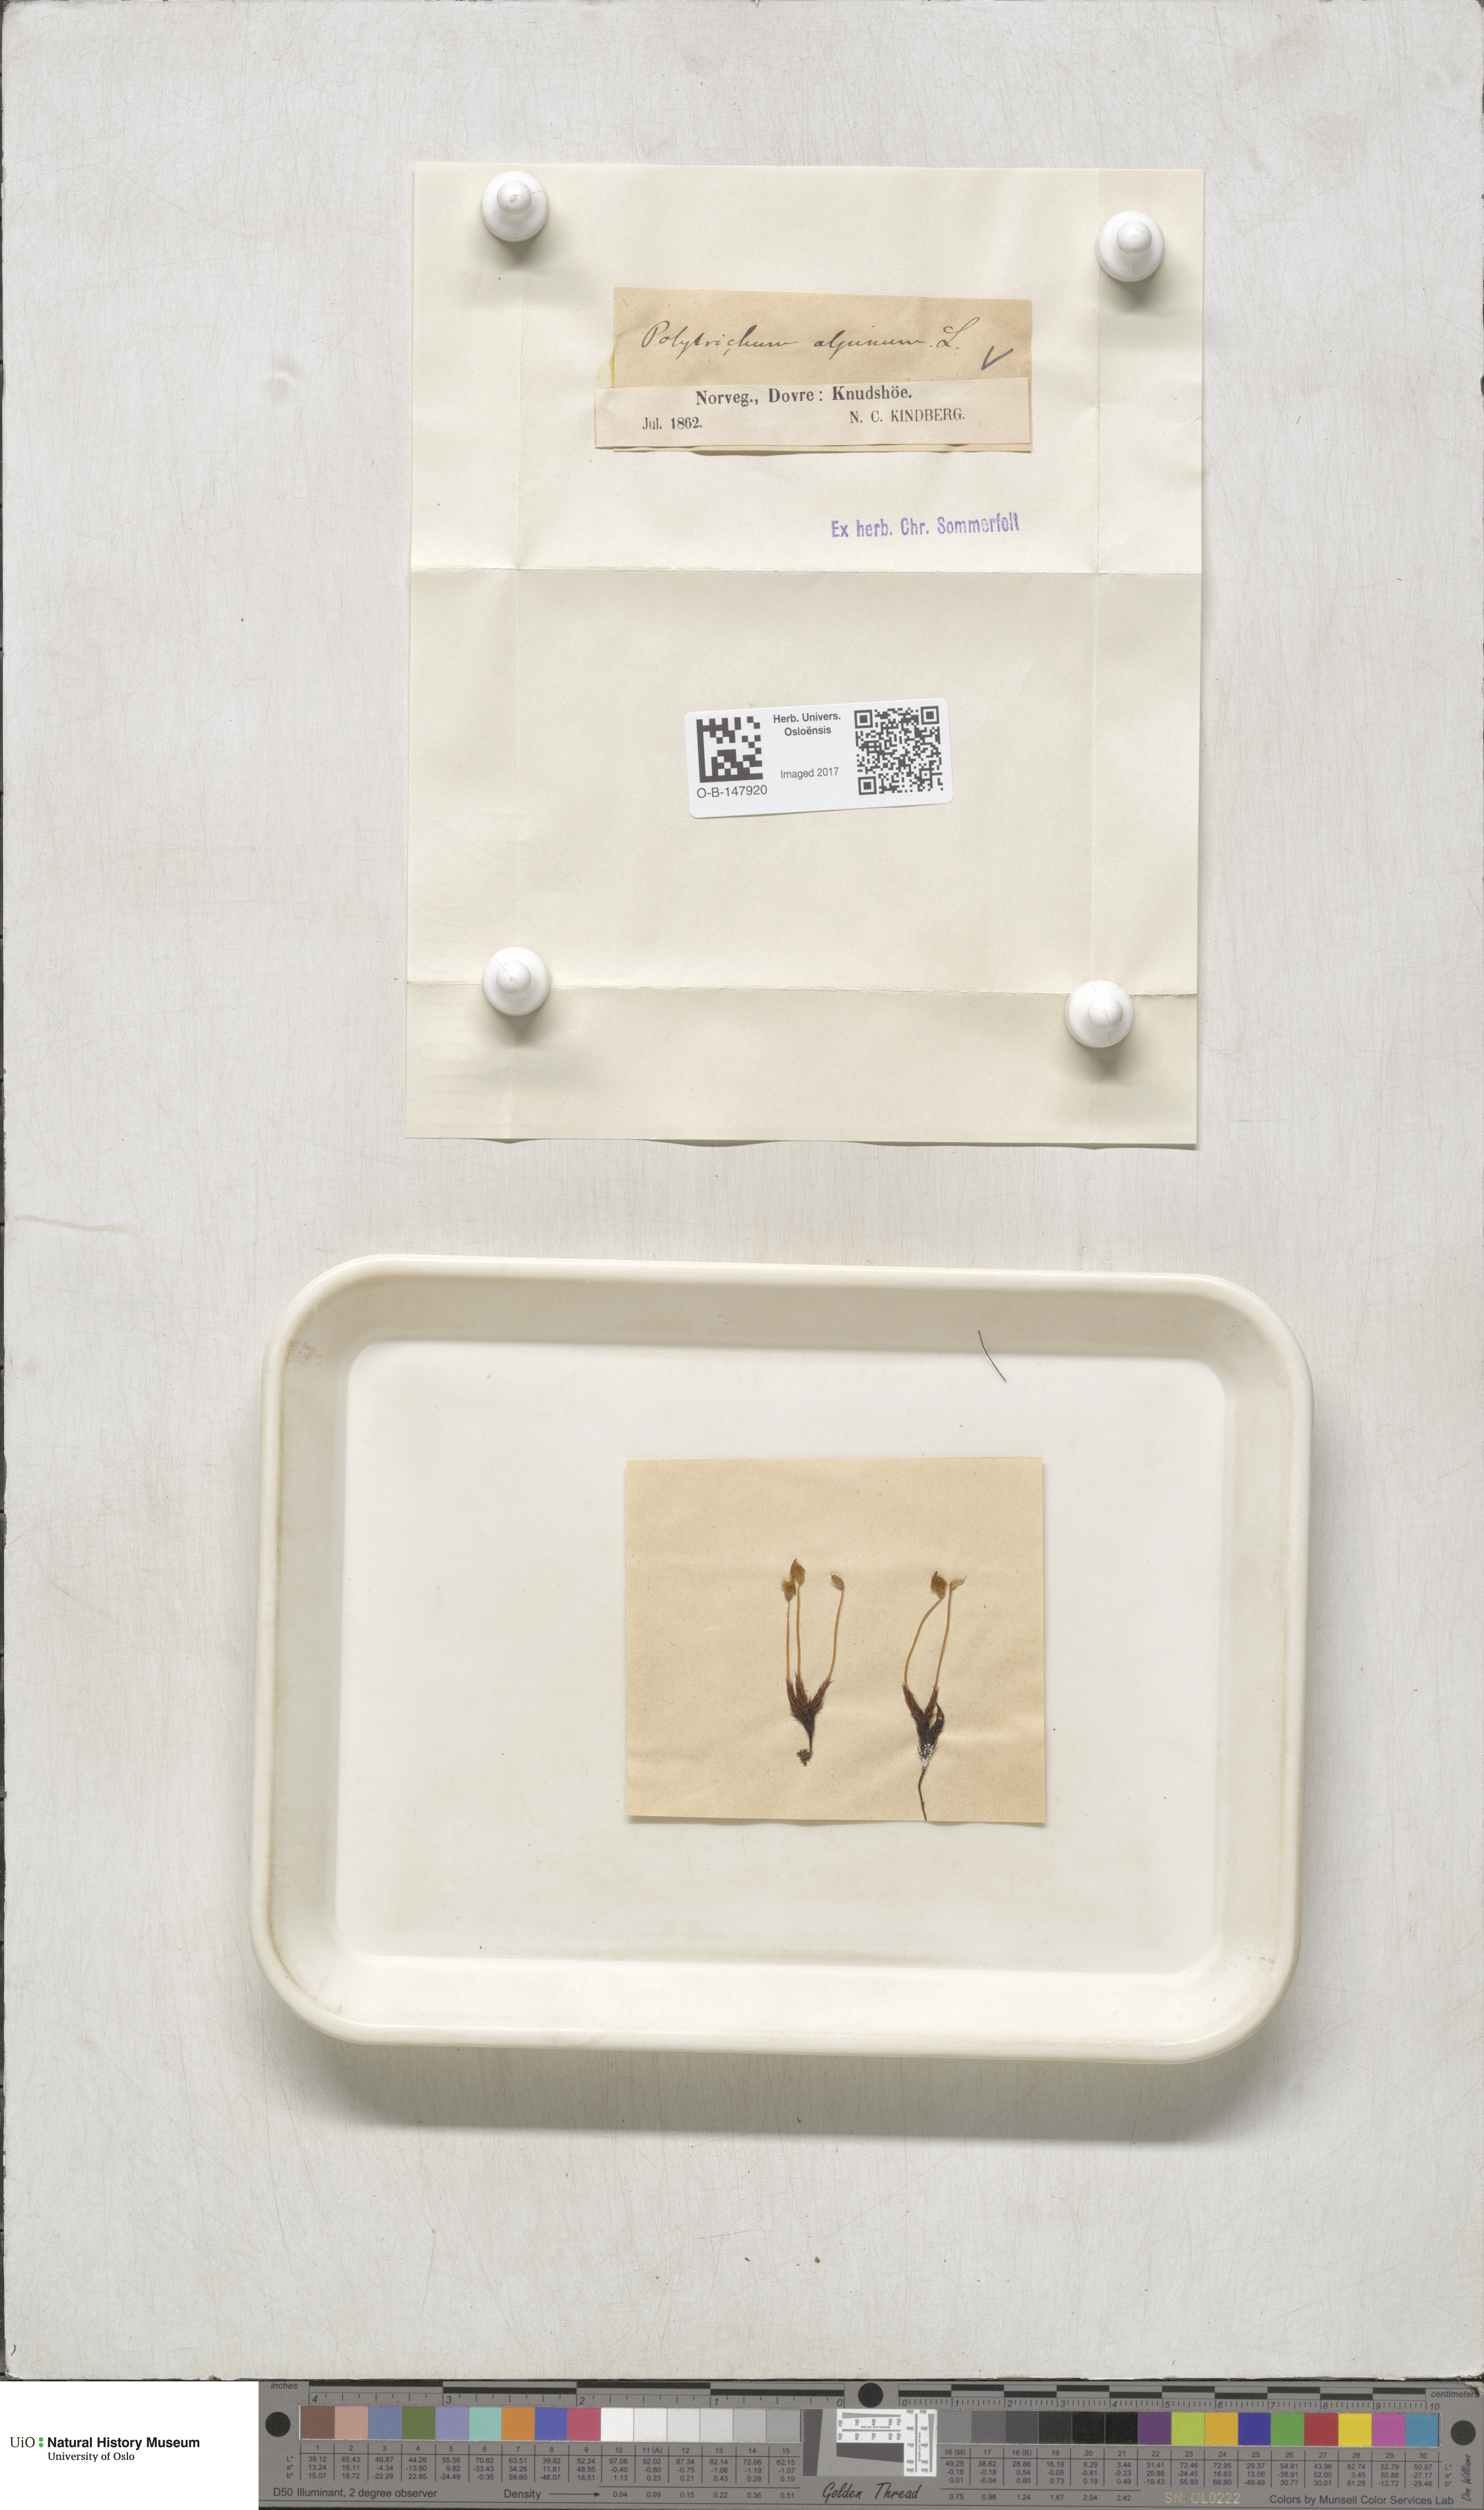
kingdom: Plantae
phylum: Bryophyta
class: Polytrichopsida
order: Polytrichales
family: Polytrichaceae
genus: Polytrichastrum
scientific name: Polytrichastrum alpinum
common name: Alpine haircap
